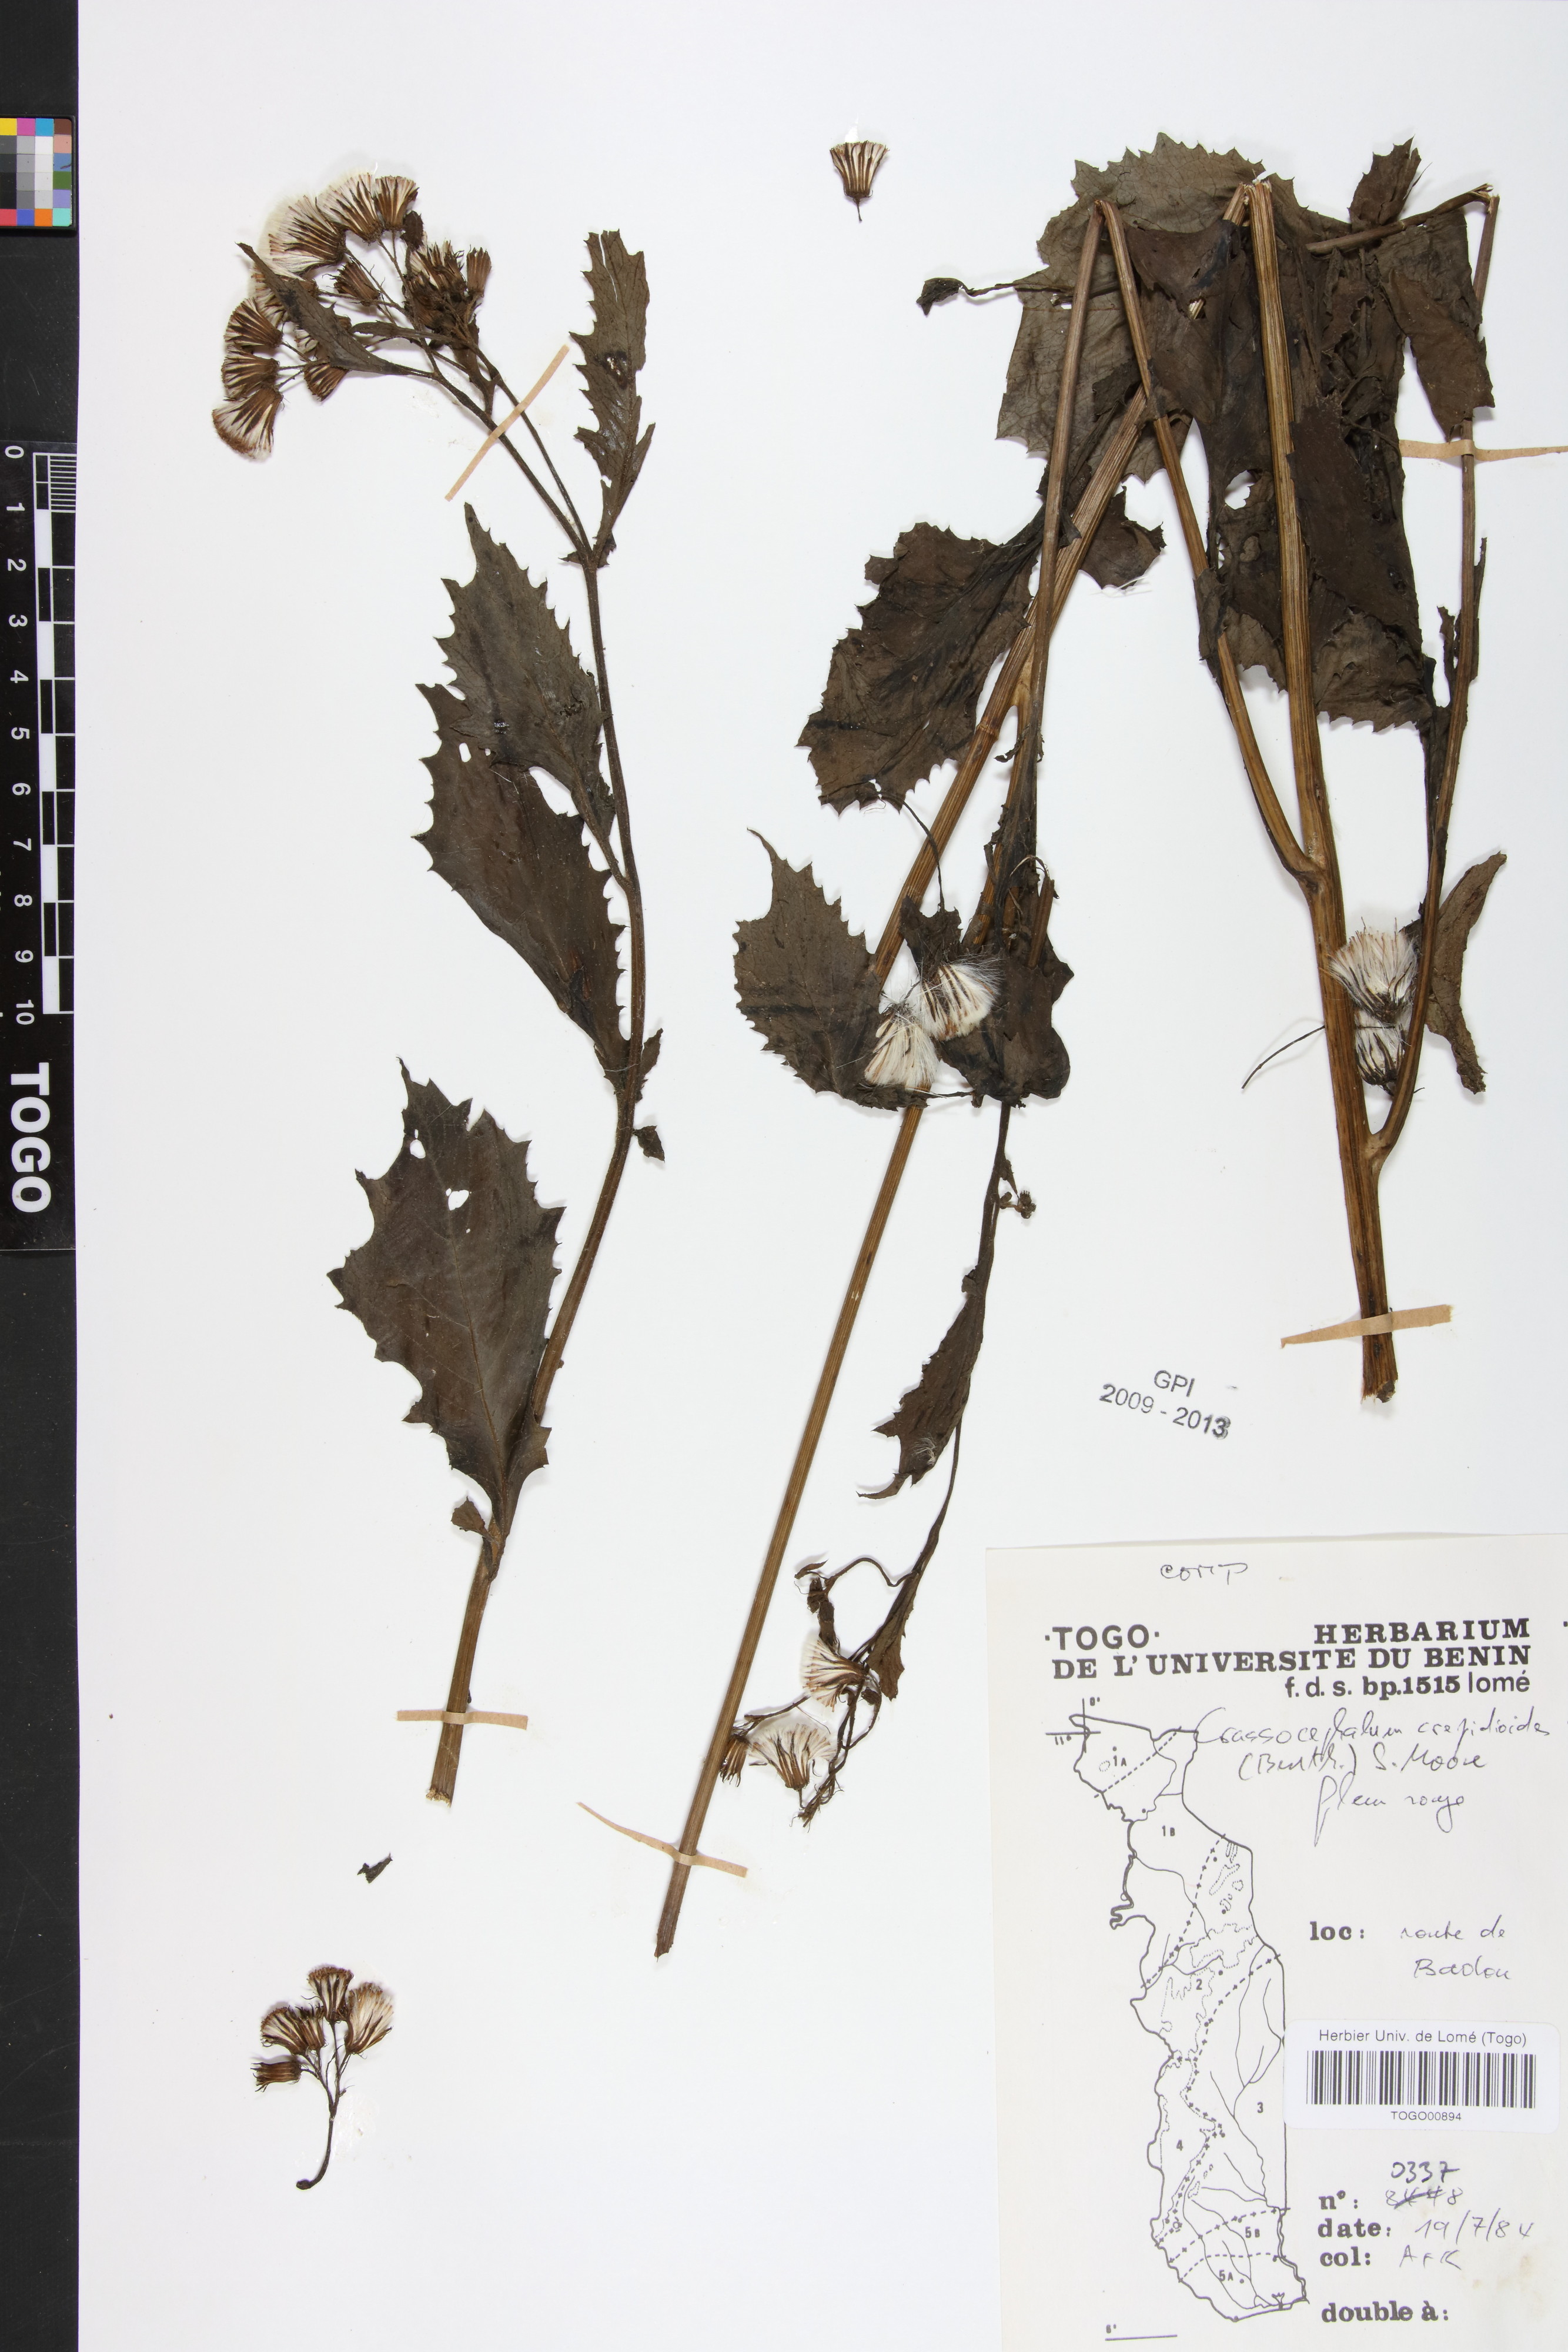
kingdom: Plantae
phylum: Tracheophyta
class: Magnoliopsida
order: Asterales
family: Asteraceae
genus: Crassocephalum
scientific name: Crassocephalum crepidioides
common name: Redflower ragleaf
